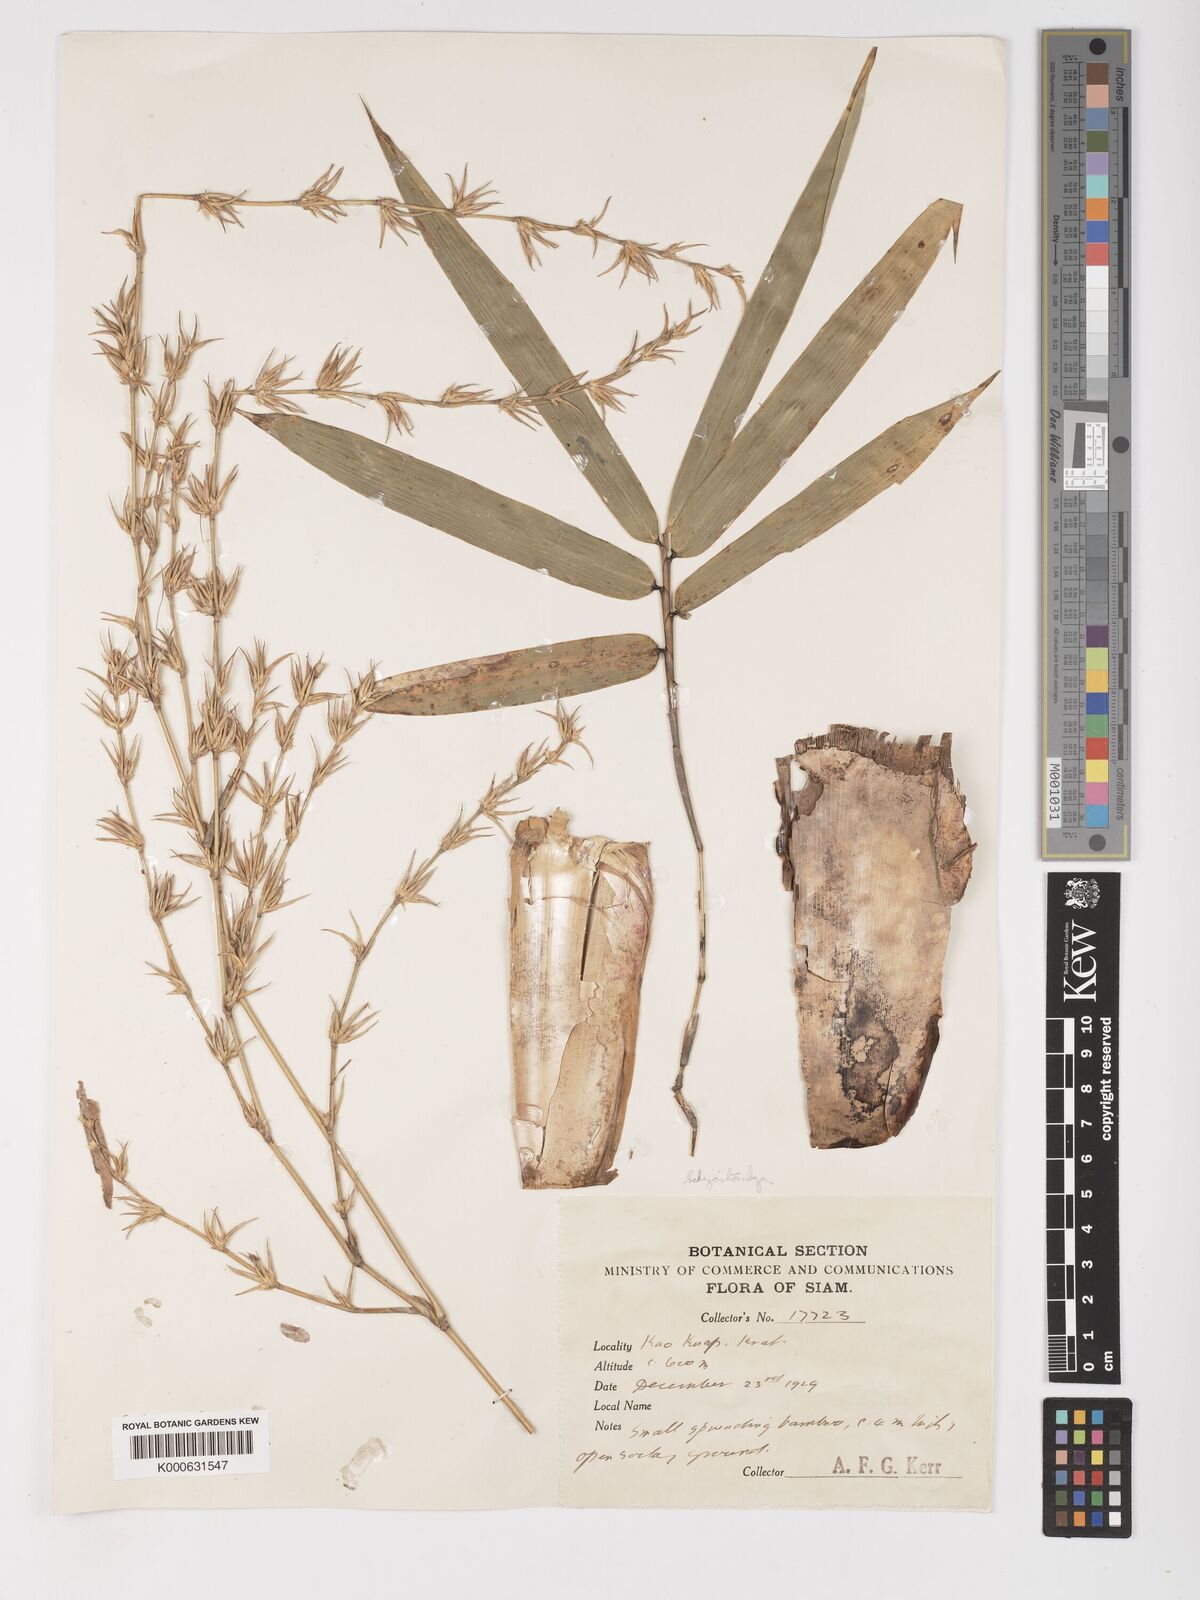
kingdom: Plantae
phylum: Tracheophyta
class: Liliopsida
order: Poales
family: Poaceae
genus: Schizostachyum
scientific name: Schizostachyum
